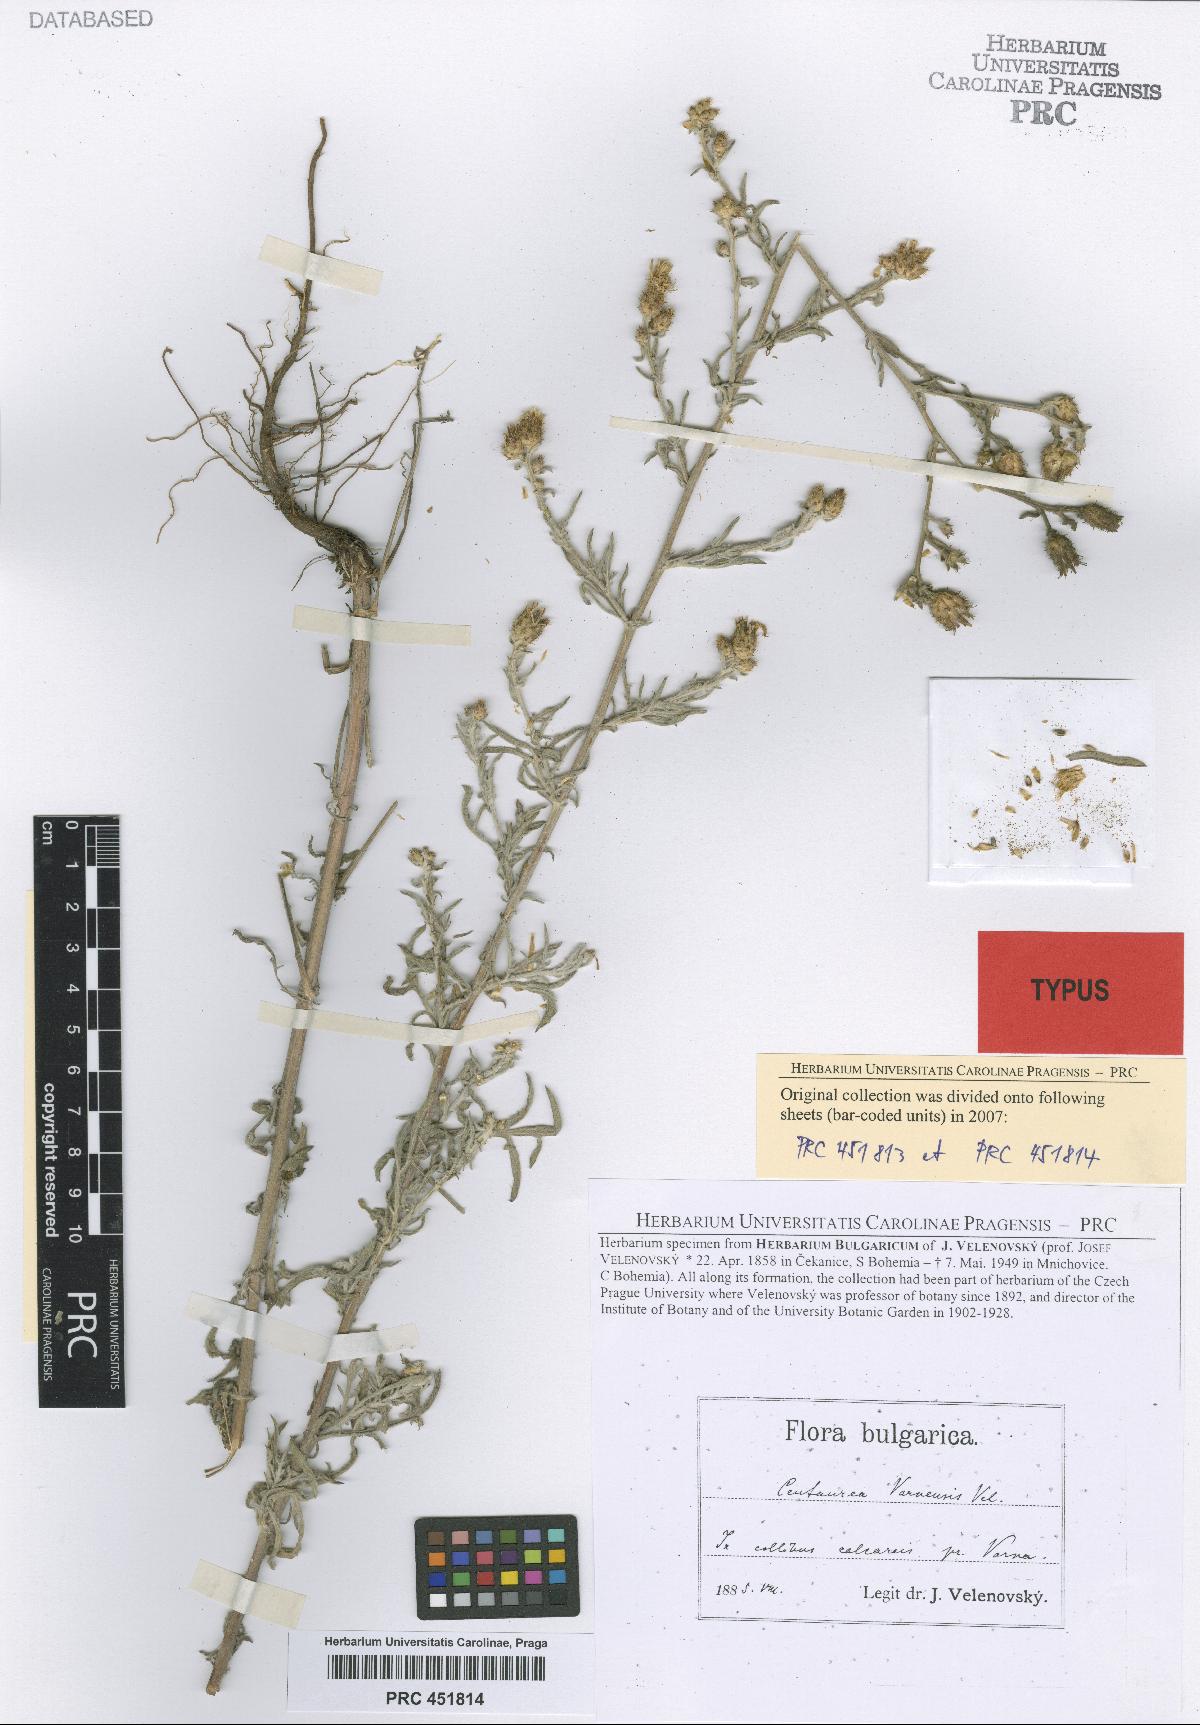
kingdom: Plantae
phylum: Tracheophyta
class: Magnoliopsida
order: Asterales
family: Asteraceae
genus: Centaurea
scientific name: Centaurea varnensis
